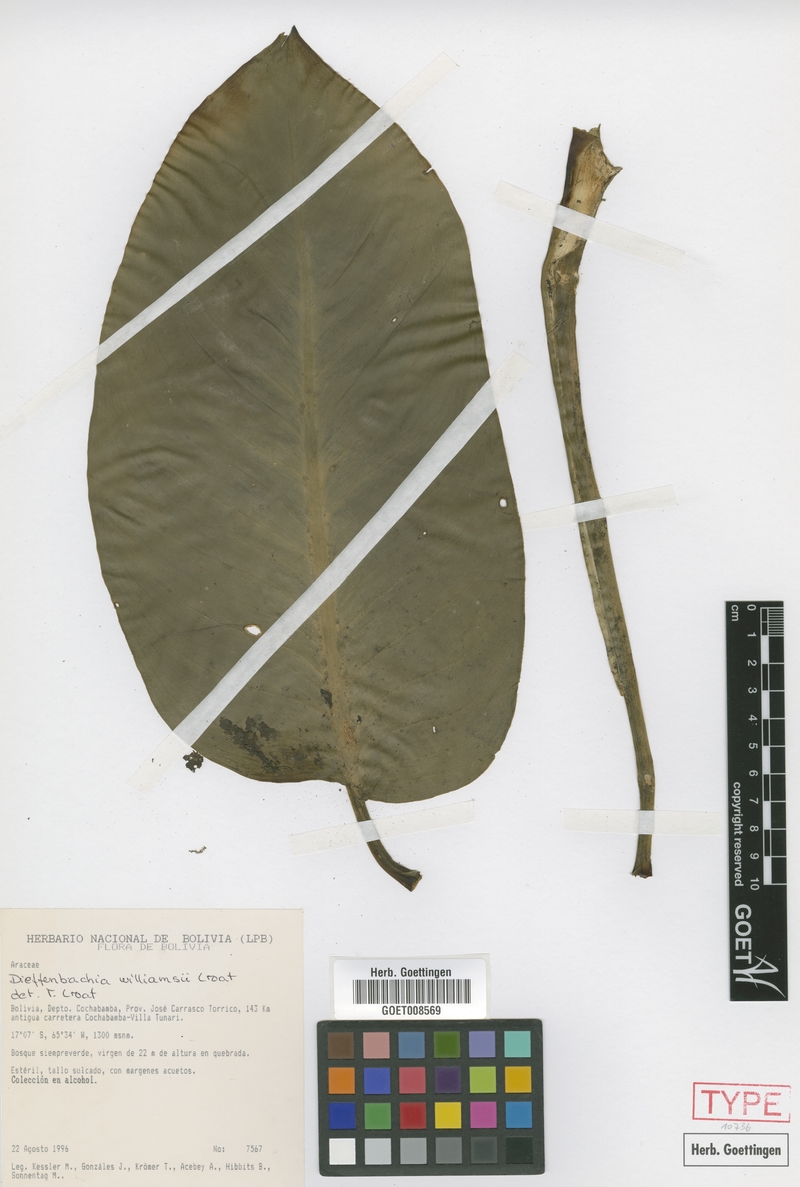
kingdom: Plantae
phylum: Tracheophyta
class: Liliopsida
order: Alismatales
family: Araceae
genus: Dieffenbachia
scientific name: Dieffenbachia williamsii
